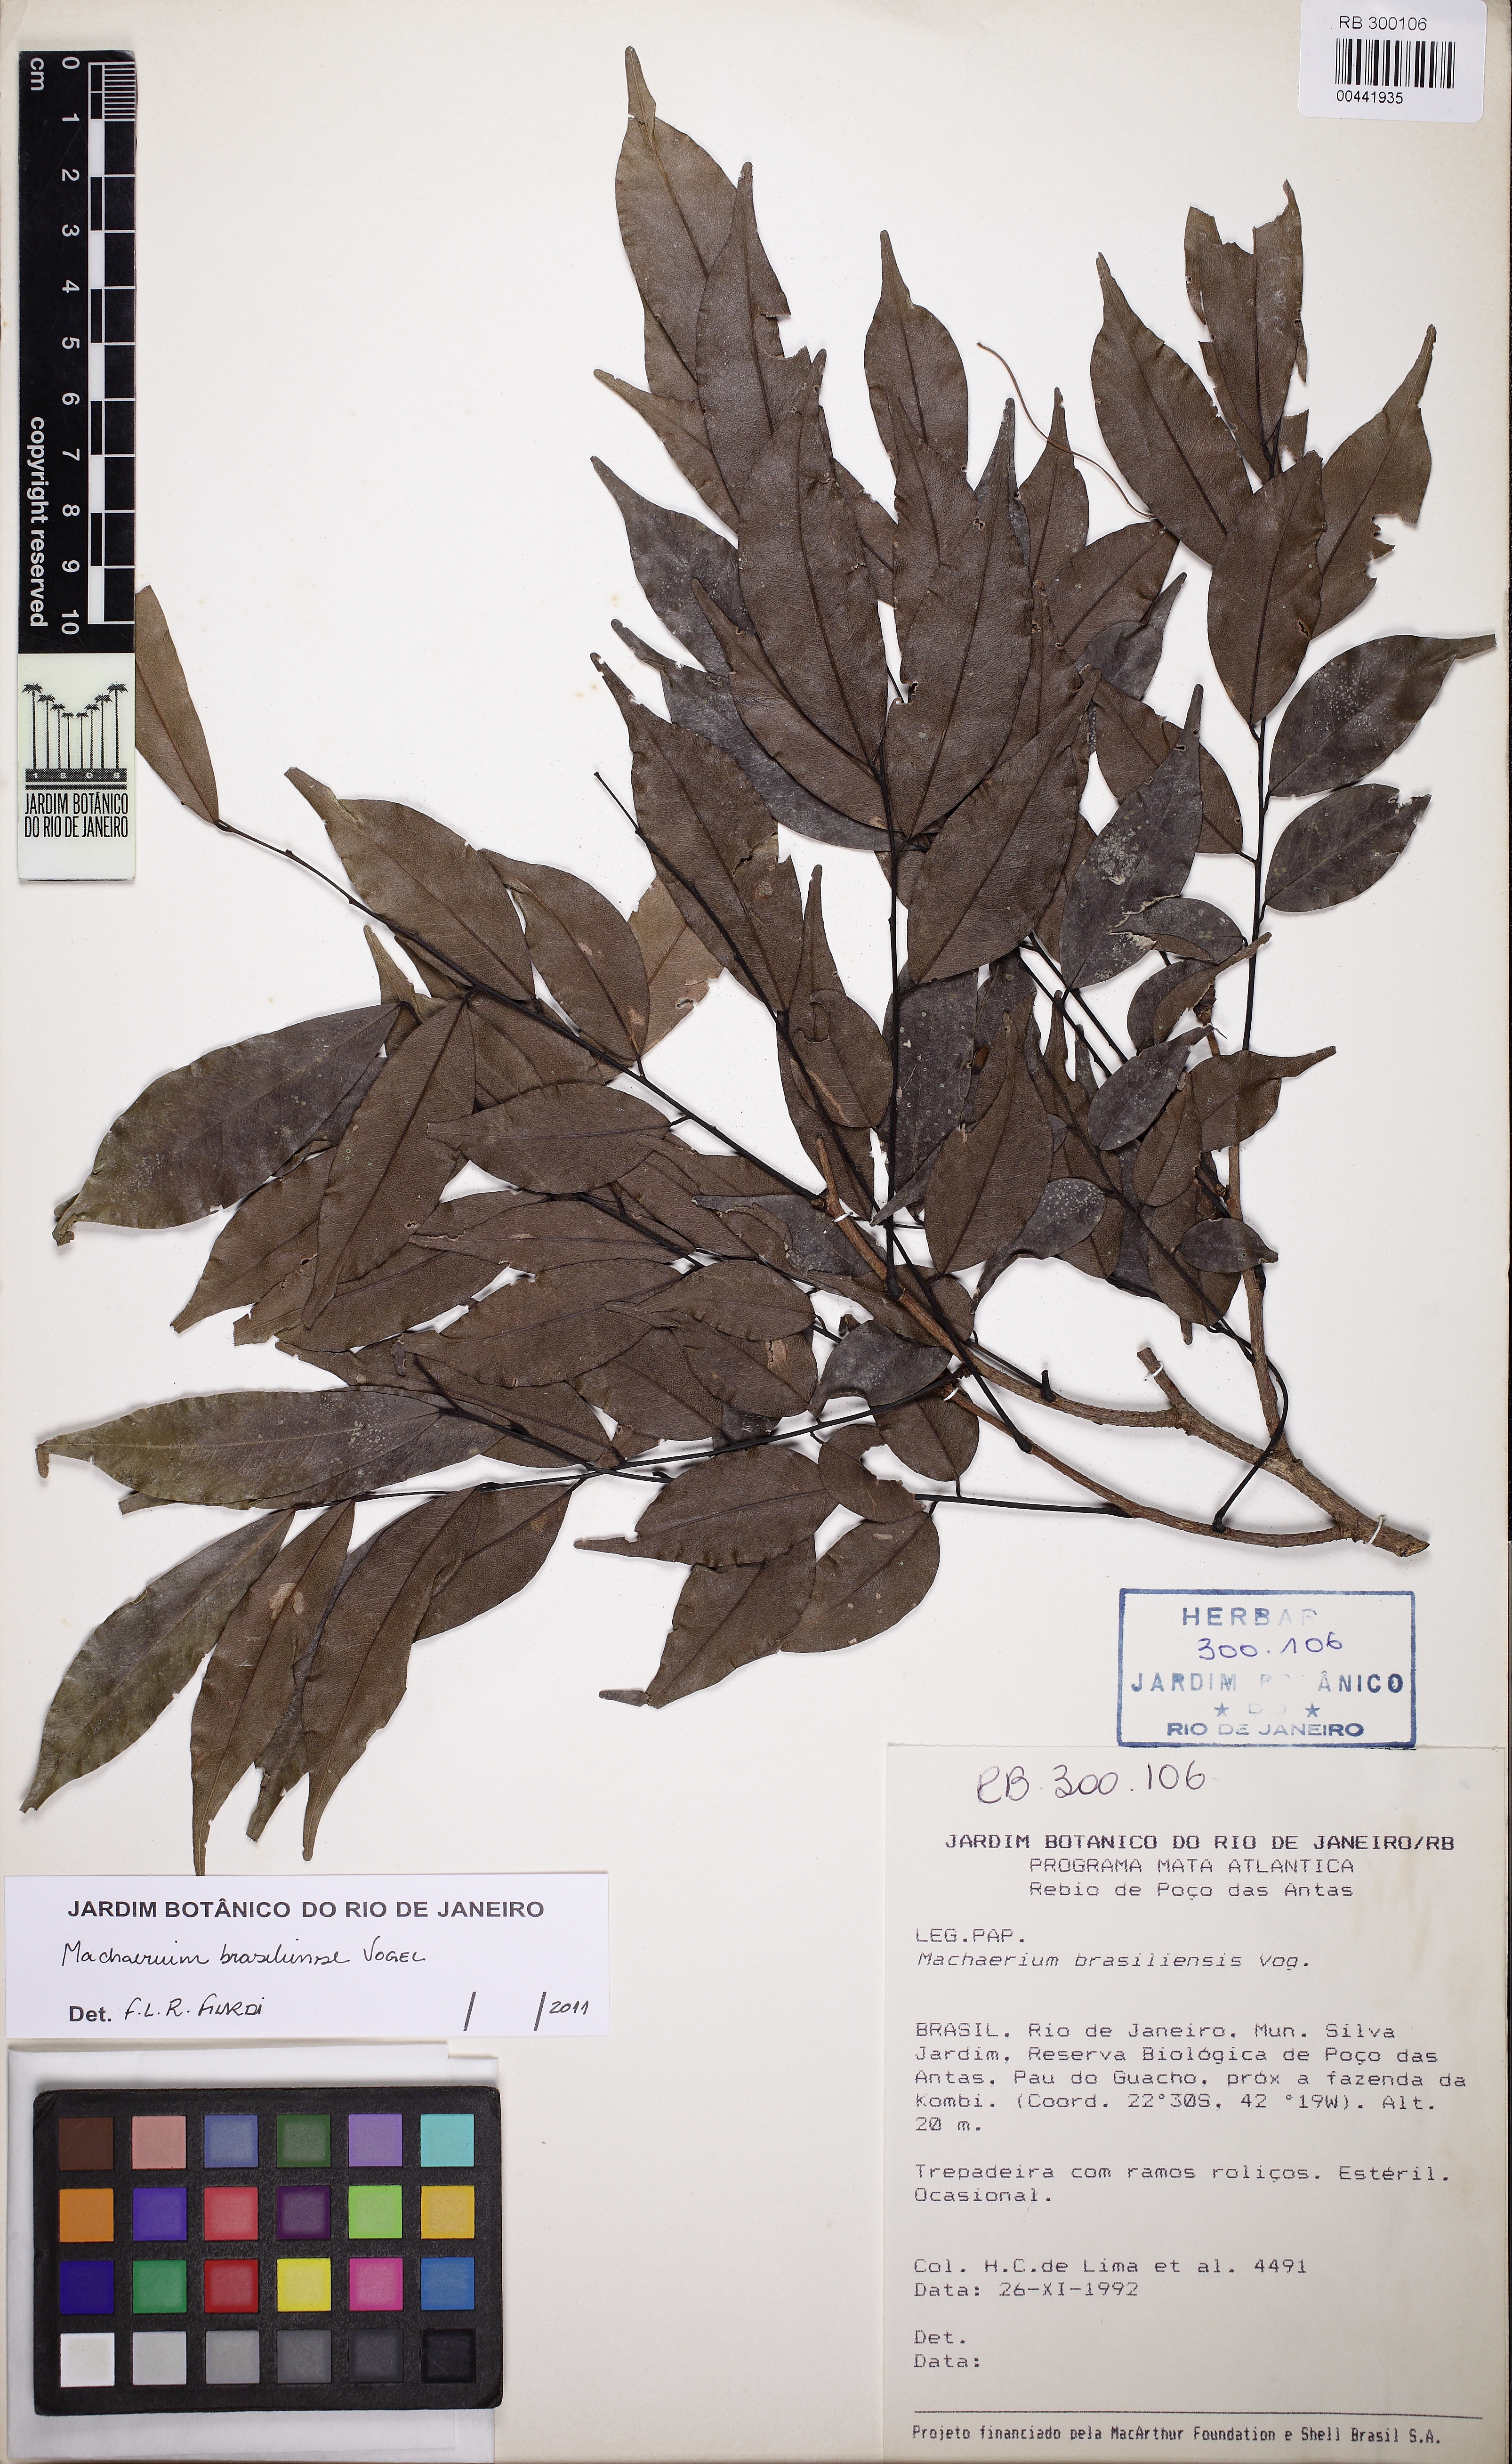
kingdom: Plantae
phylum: Tracheophyta
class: Magnoliopsida
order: Fabales
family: Fabaceae
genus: Machaerium
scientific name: Machaerium brasiliense
